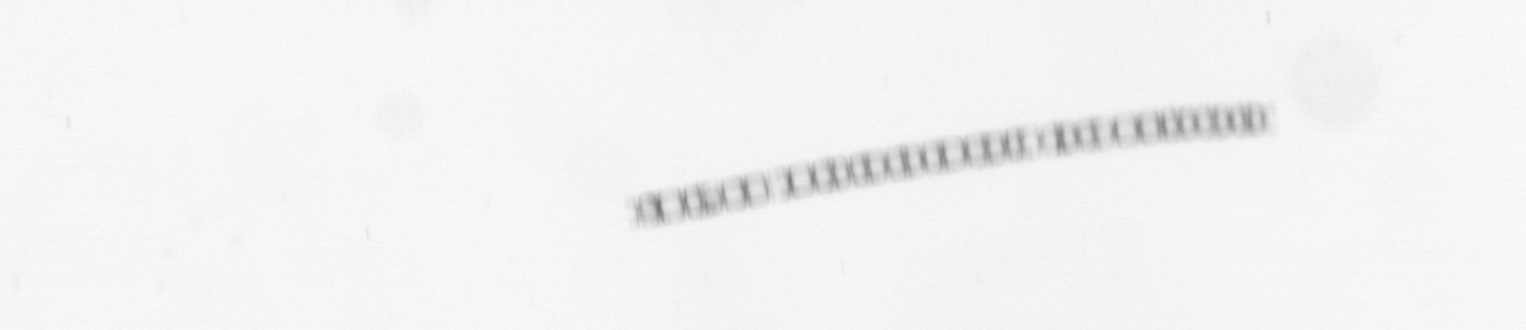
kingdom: Chromista
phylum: Ochrophyta
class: Bacillariophyceae
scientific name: Bacillariophyceae
